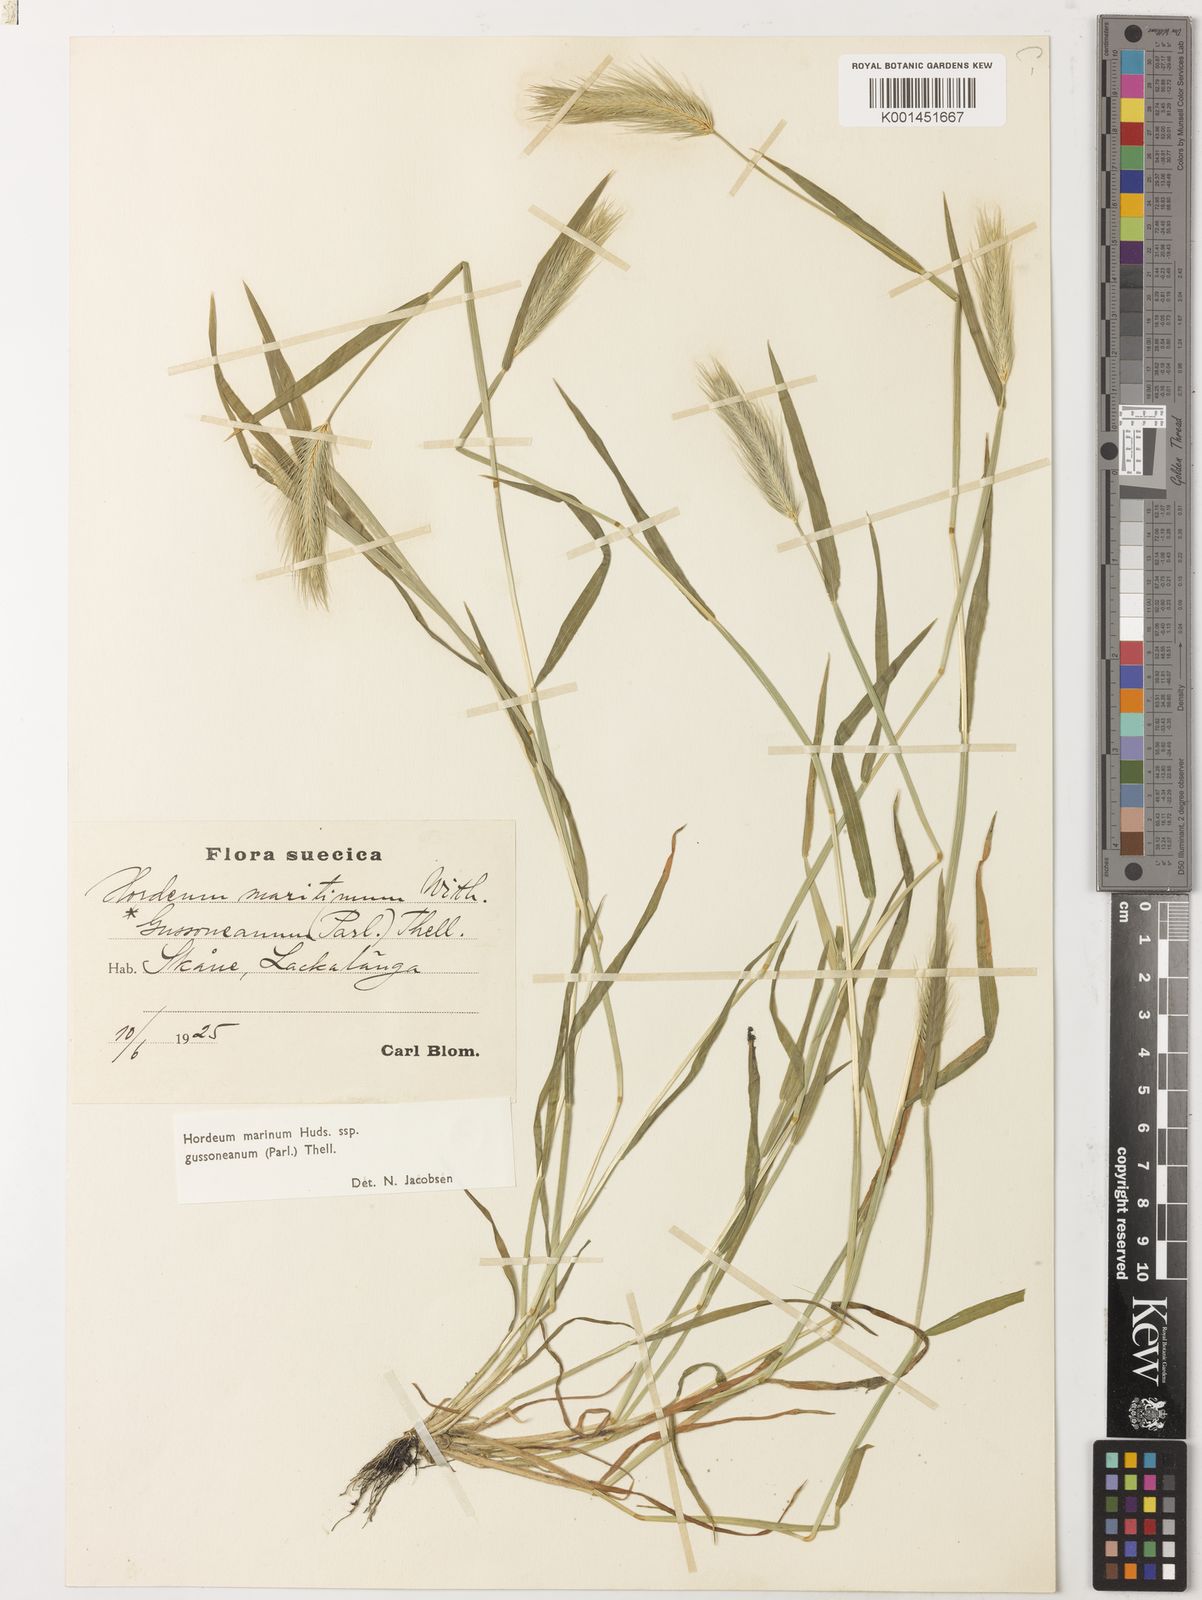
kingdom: Plantae
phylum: Tracheophyta
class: Liliopsida
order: Poales
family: Poaceae
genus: Hordeum
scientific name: Hordeum marinum
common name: Sea barley
